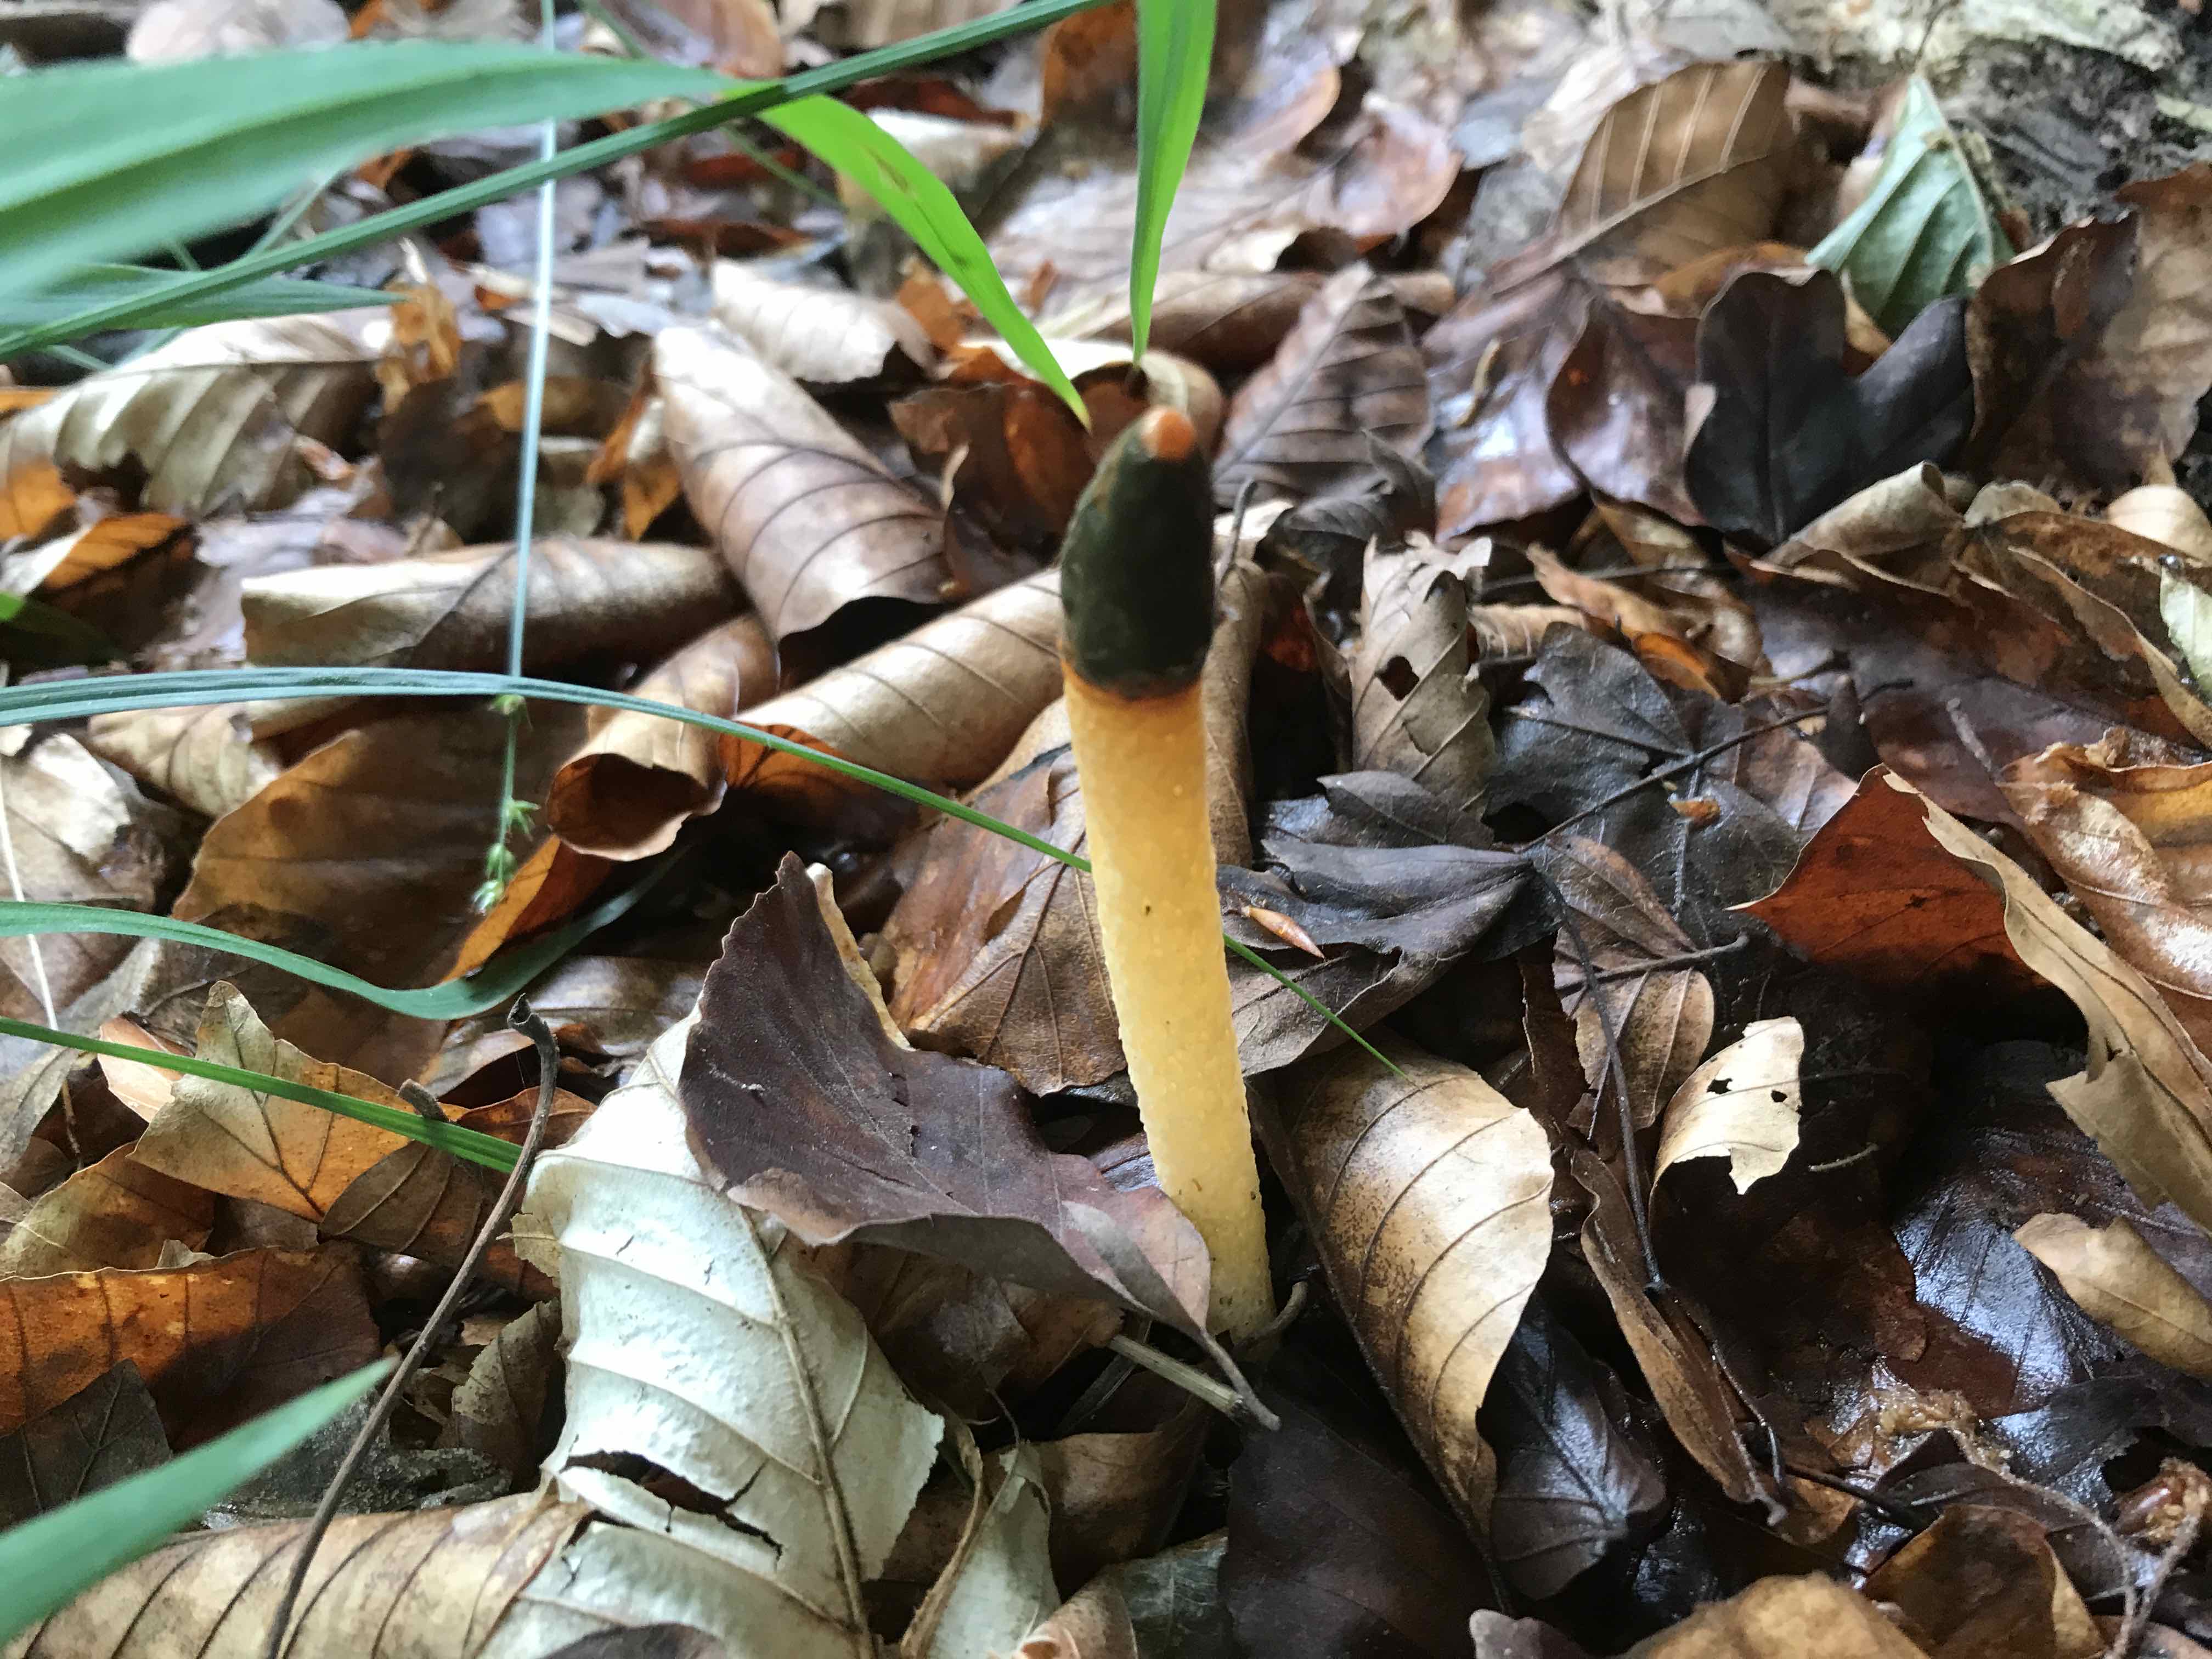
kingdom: Fungi
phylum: Basidiomycota
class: Agaricomycetes
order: Phallales
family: Phallaceae
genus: Mutinus
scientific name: Mutinus caninus
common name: hunde-stinksvamp
